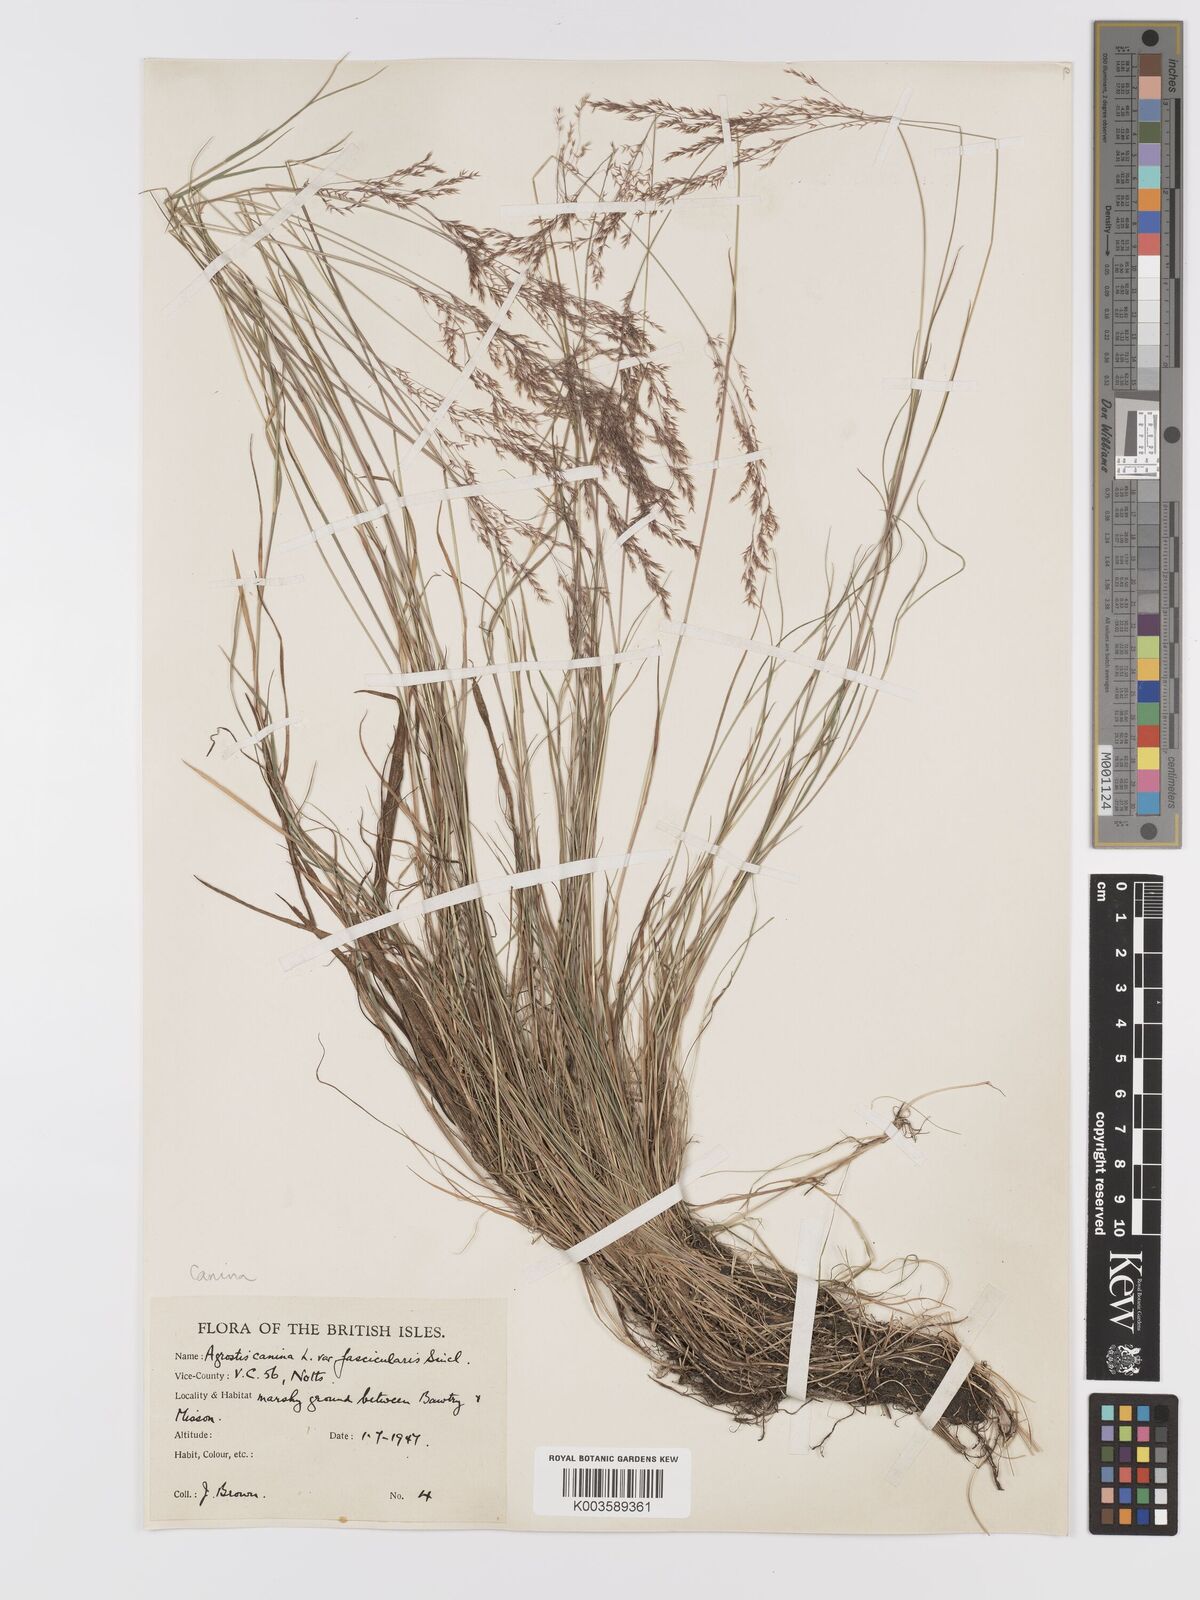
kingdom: Plantae
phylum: Tracheophyta
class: Liliopsida
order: Poales
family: Poaceae
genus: Agrostis
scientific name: Agrostis canina
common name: Velvet bent
